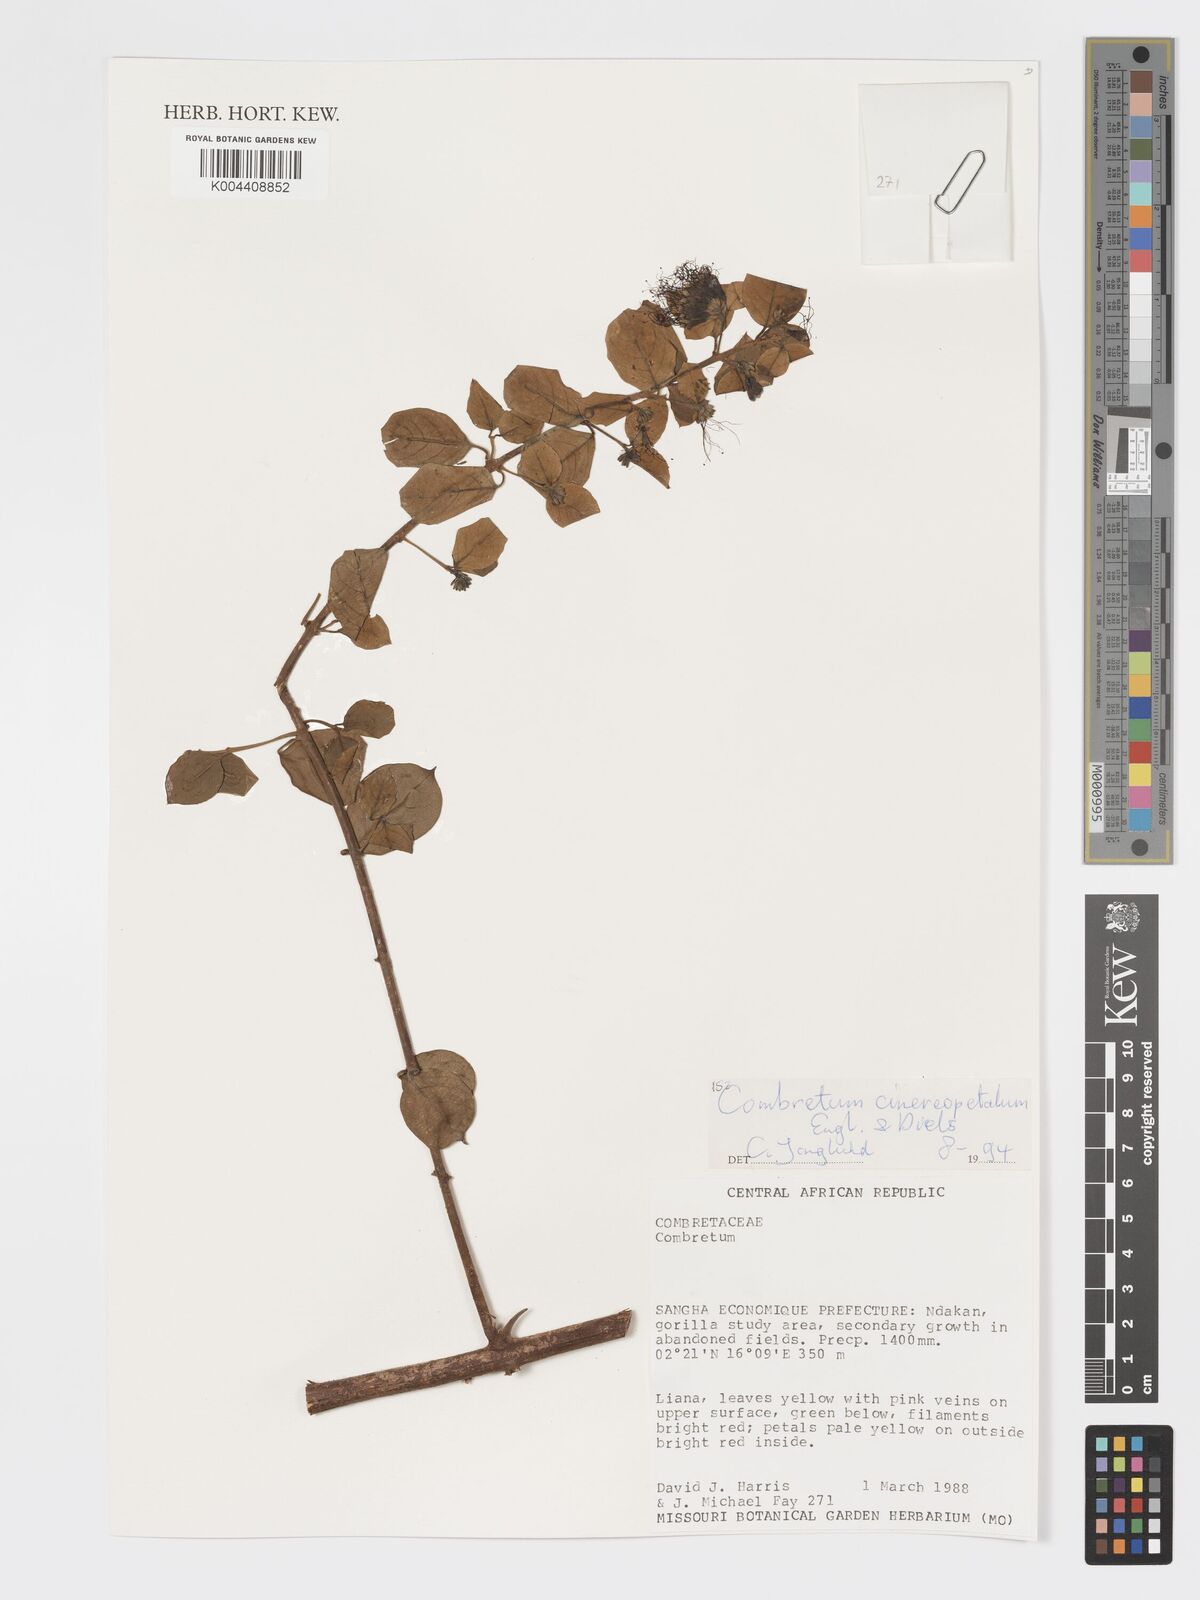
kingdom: Plantae
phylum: Tracheophyta
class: Magnoliopsida
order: Myrtales
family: Combretaceae
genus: Combretum
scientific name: Combretum cinereopetalum
